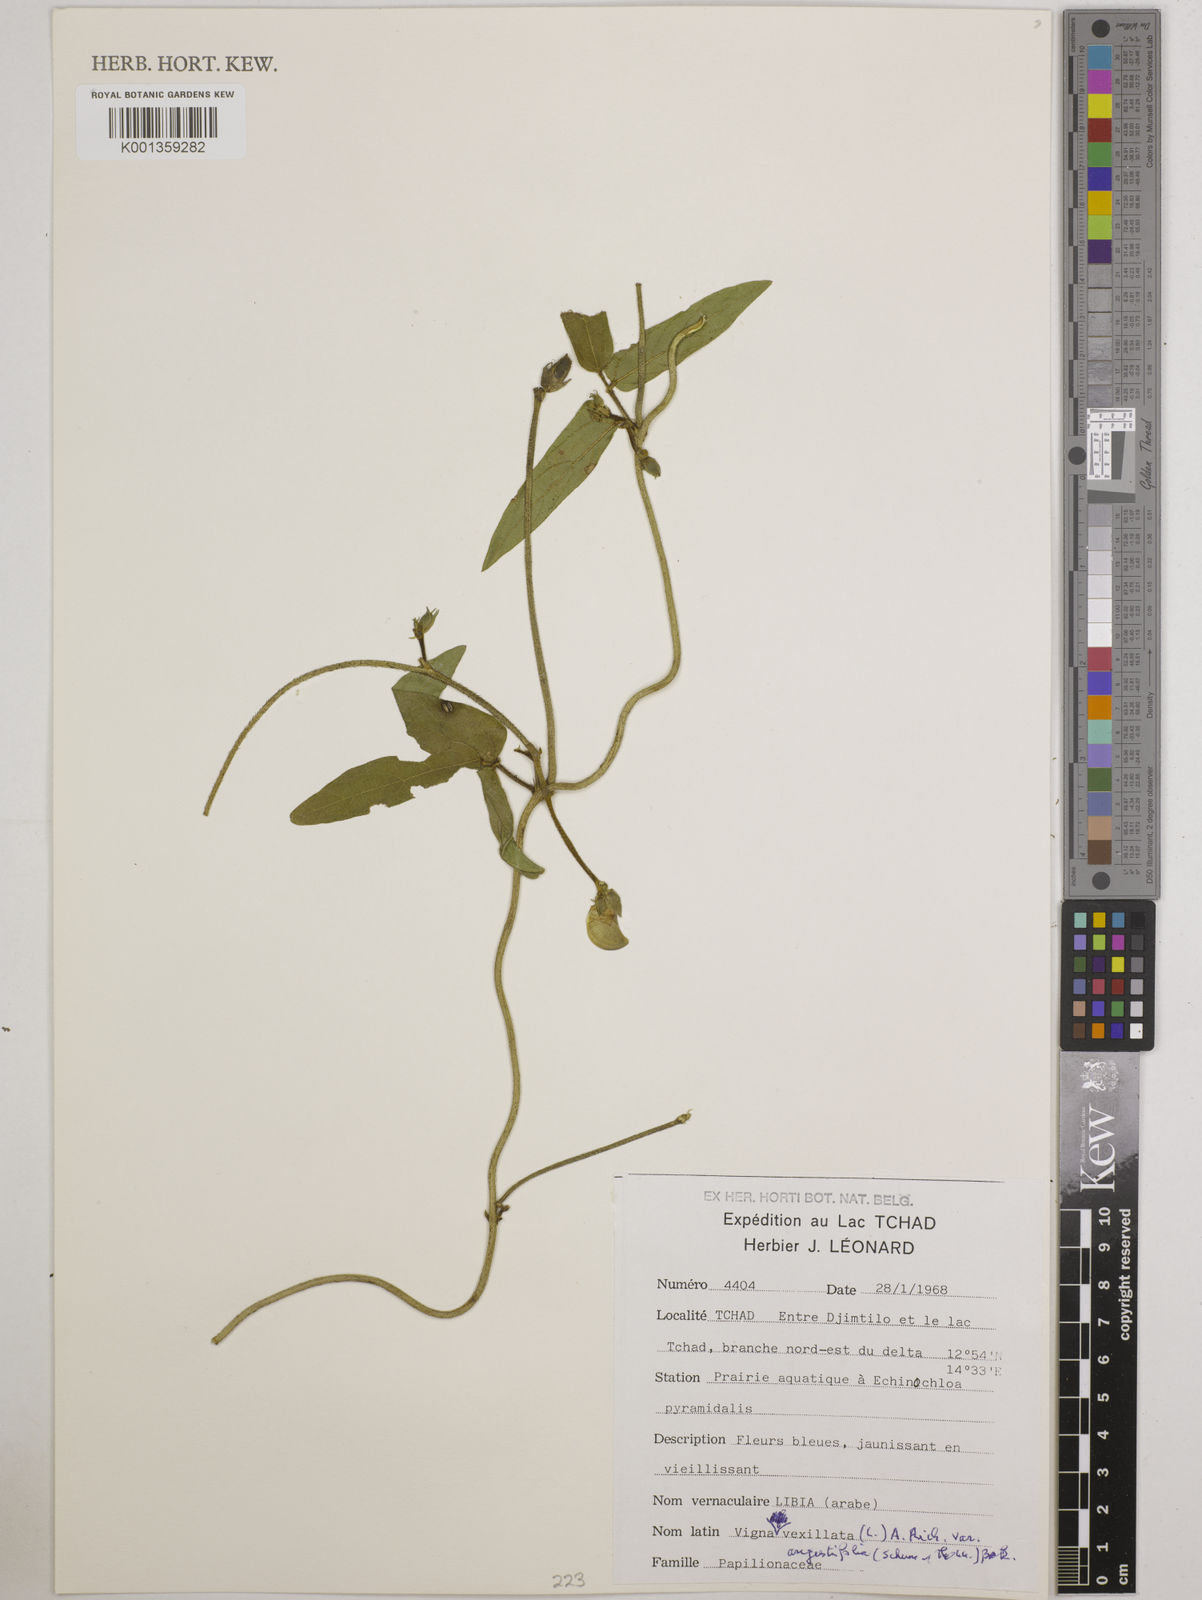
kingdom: Plantae
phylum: Tracheophyta
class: Magnoliopsida
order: Fabales
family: Fabaceae
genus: Vigna
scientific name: Vigna vexillata
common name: Zombi pea
